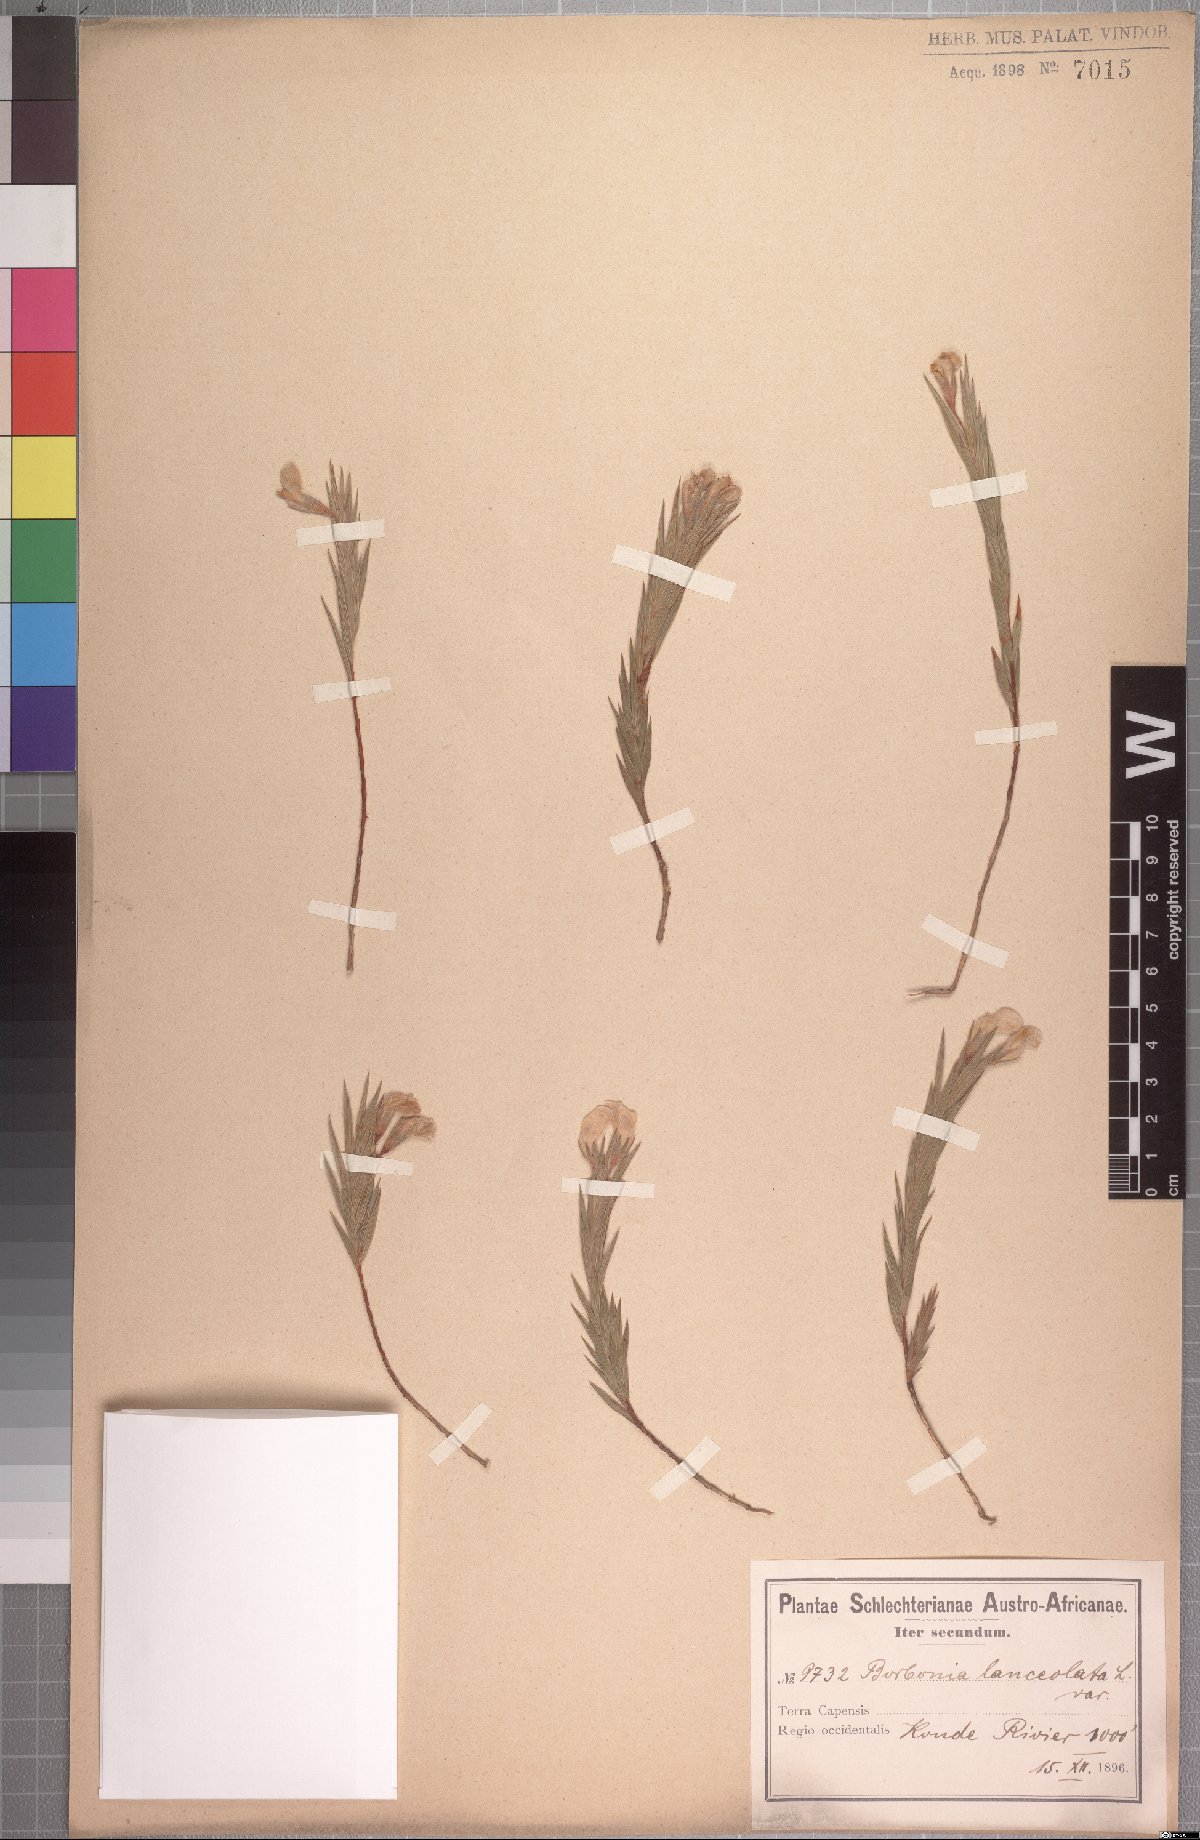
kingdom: Plantae
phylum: Tracheophyta
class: Magnoliopsida
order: Fabales
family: Fabaceae
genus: Aspalathus
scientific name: Aspalathus angustifolia
